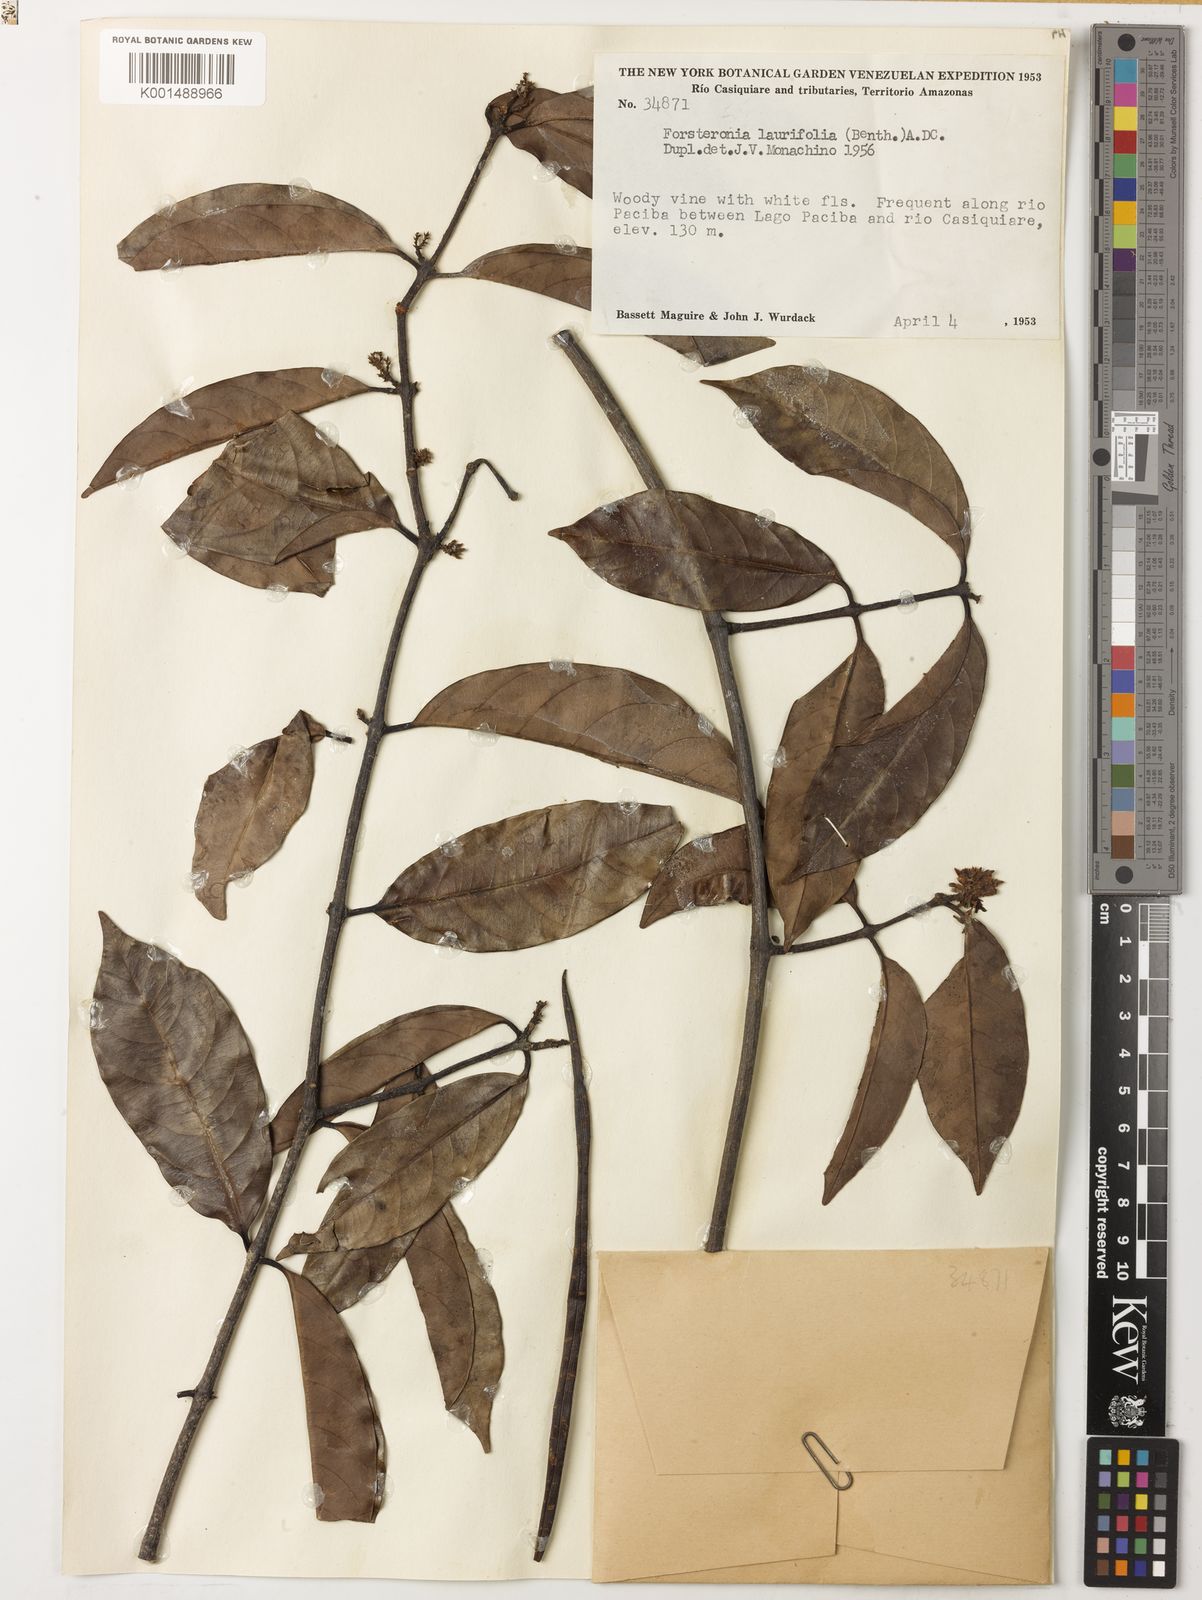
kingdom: Plantae
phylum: Tracheophyta
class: Magnoliopsida
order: Gentianales
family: Apocynaceae
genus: Forsteronia
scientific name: Forsteronia laurifolia
